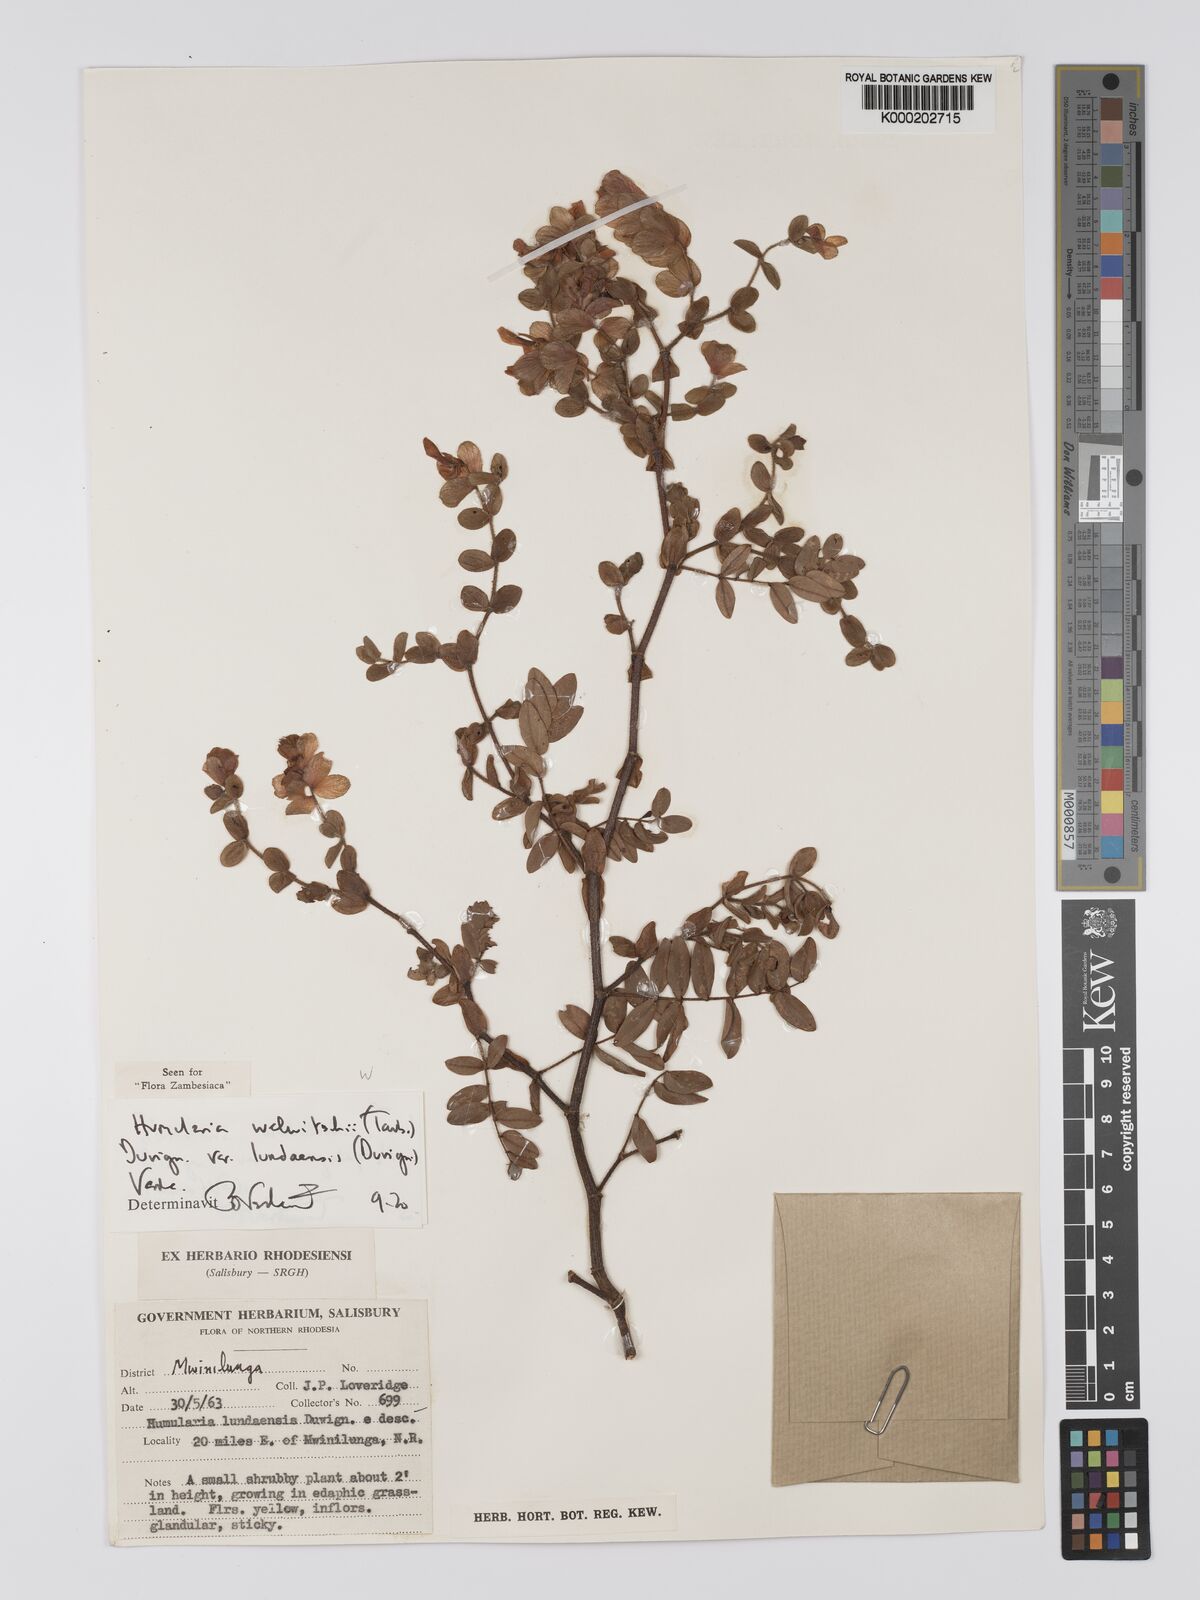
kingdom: Plantae
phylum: Tracheophyta
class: Magnoliopsida
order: Fabales
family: Fabaceae
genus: Humularia
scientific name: Humularia welwitschii
